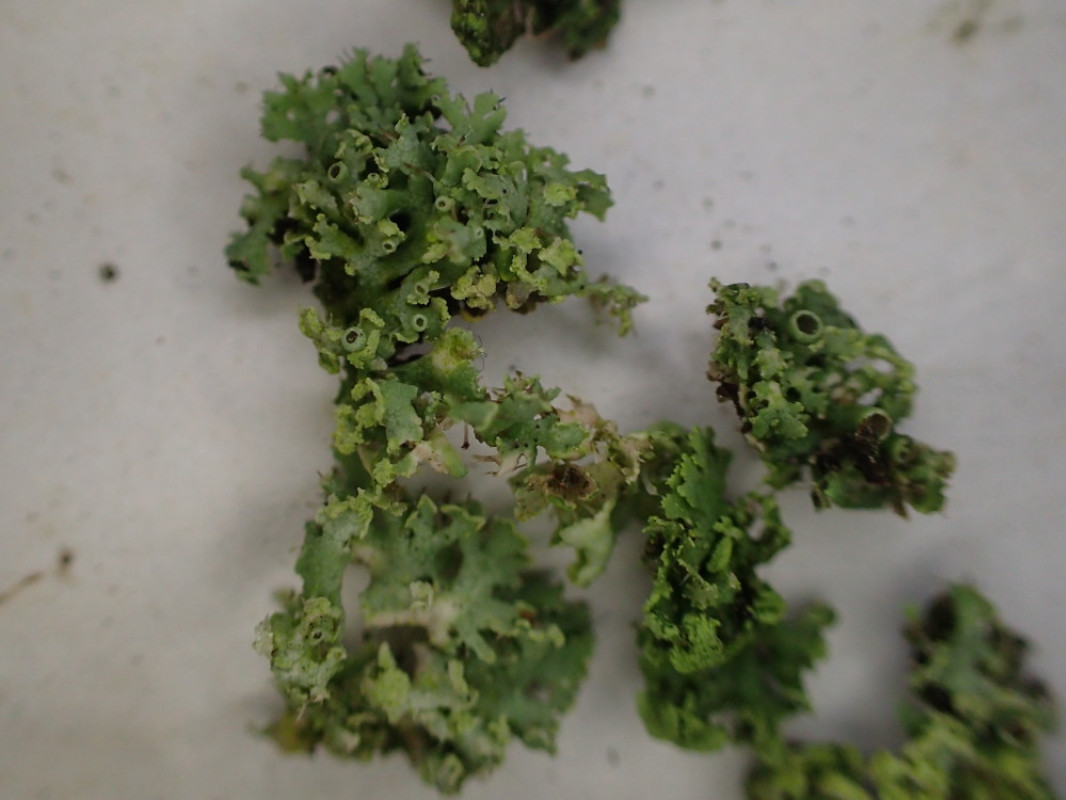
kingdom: Fungi
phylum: Ascomycota
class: Lecanoromycetes
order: Caliciales
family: Physciaceae
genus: Physcia
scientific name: Physcia tenella
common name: spæd rosetlav
